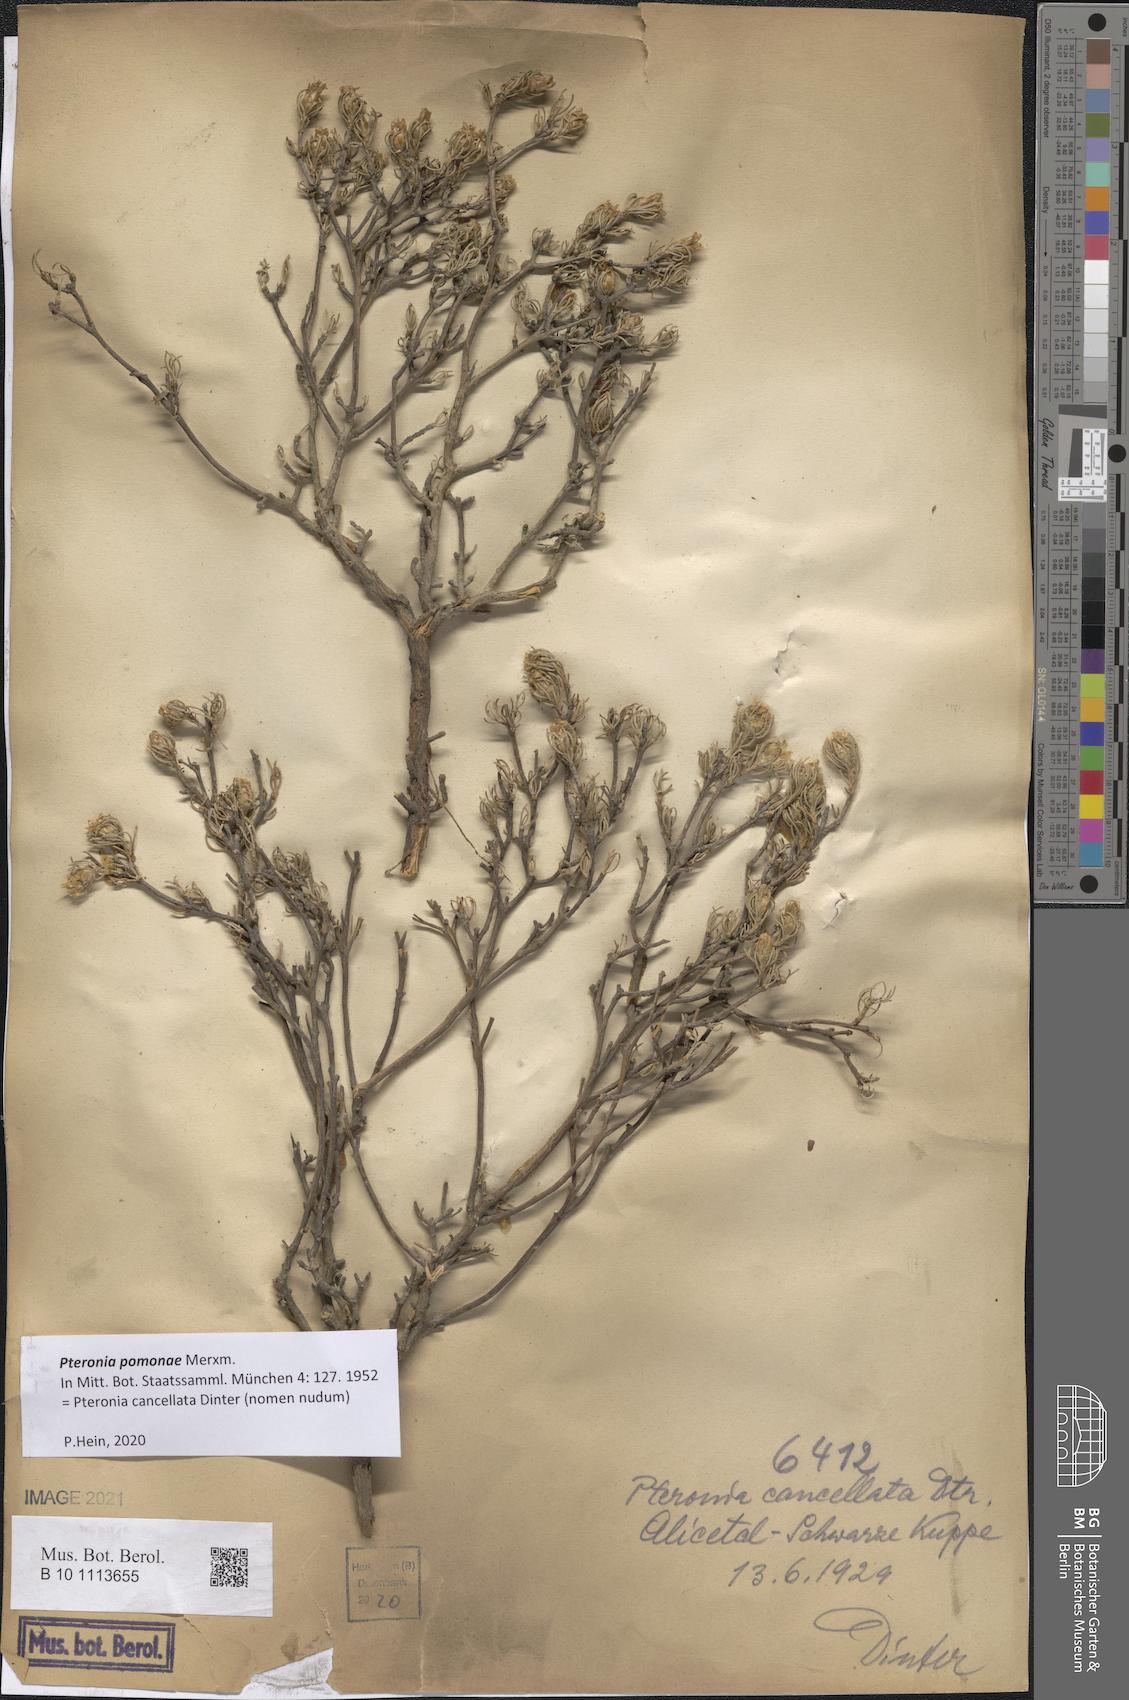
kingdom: Plantae
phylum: Tracheophyta
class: Magnoliopsida
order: Asterales
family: Asteraceae
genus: Pteronia
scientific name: Pteronia pomonae
